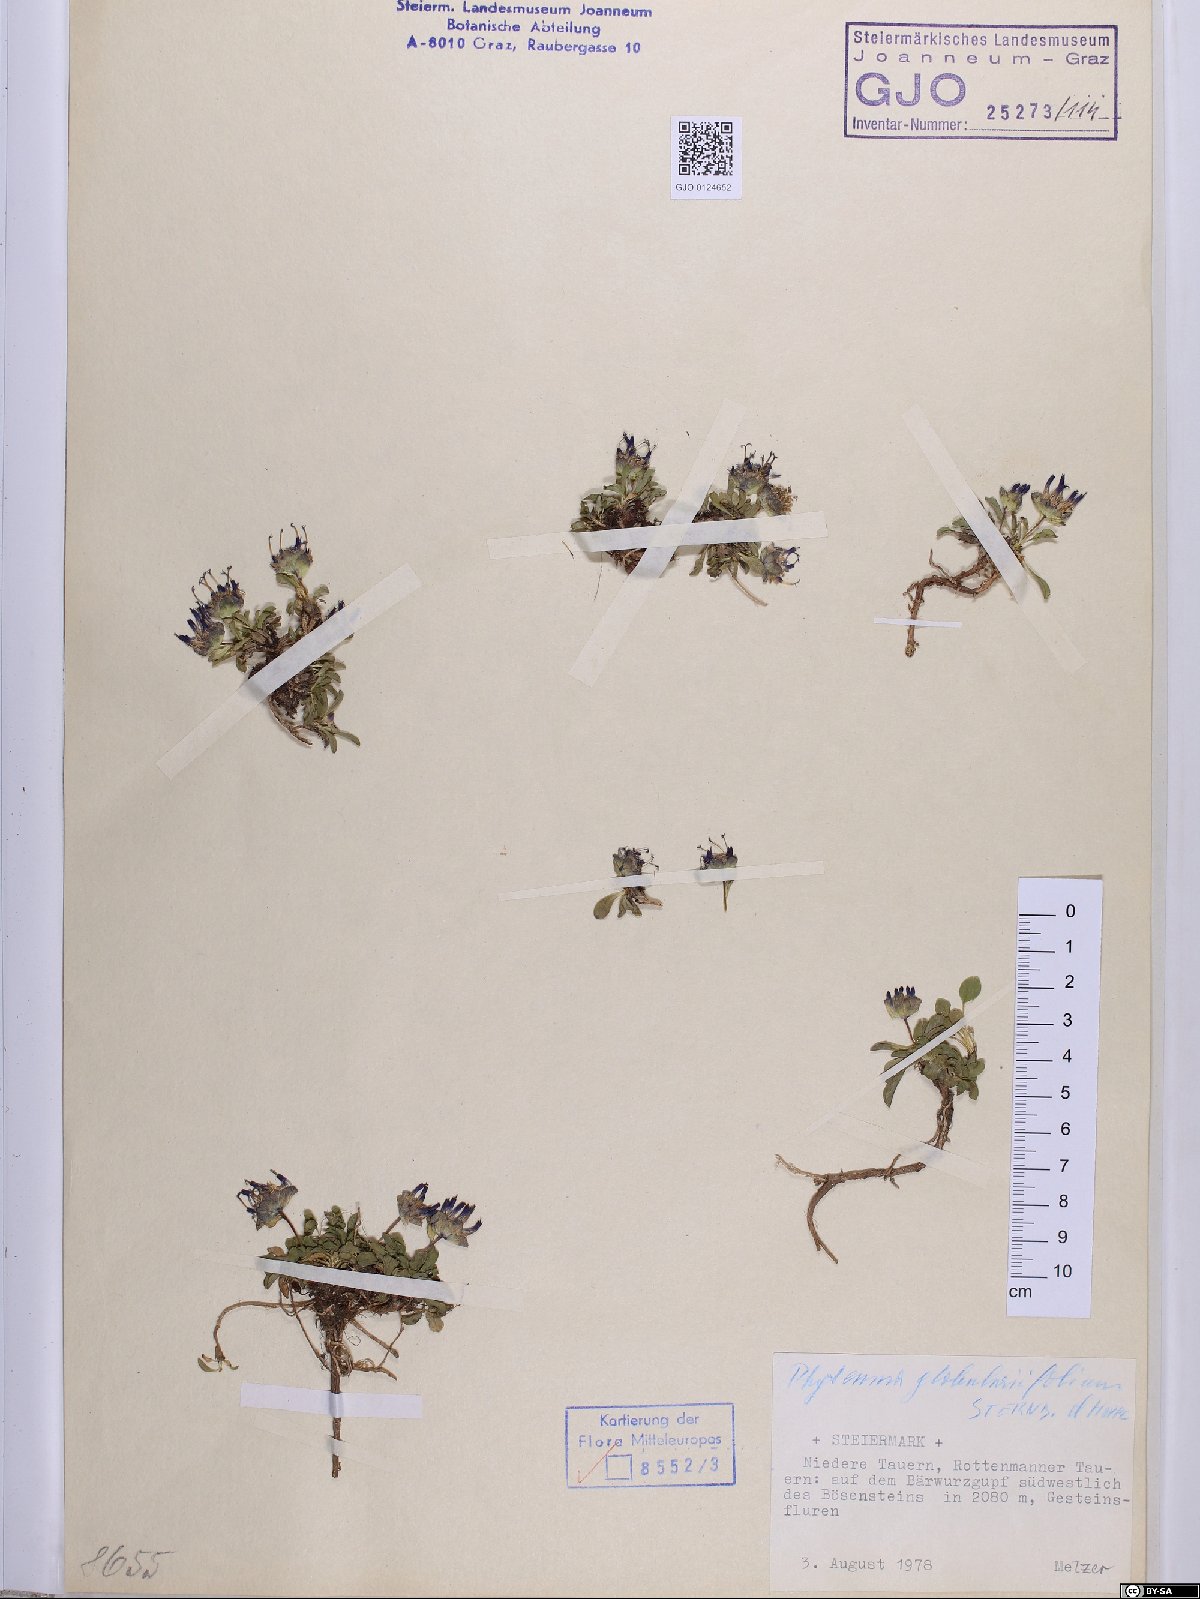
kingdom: Plantae
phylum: Tracheophyta
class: Magnoliopsida
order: Asterales
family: Campanulaceae
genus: Phyteuma
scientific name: Phyteuma globulariifolium
